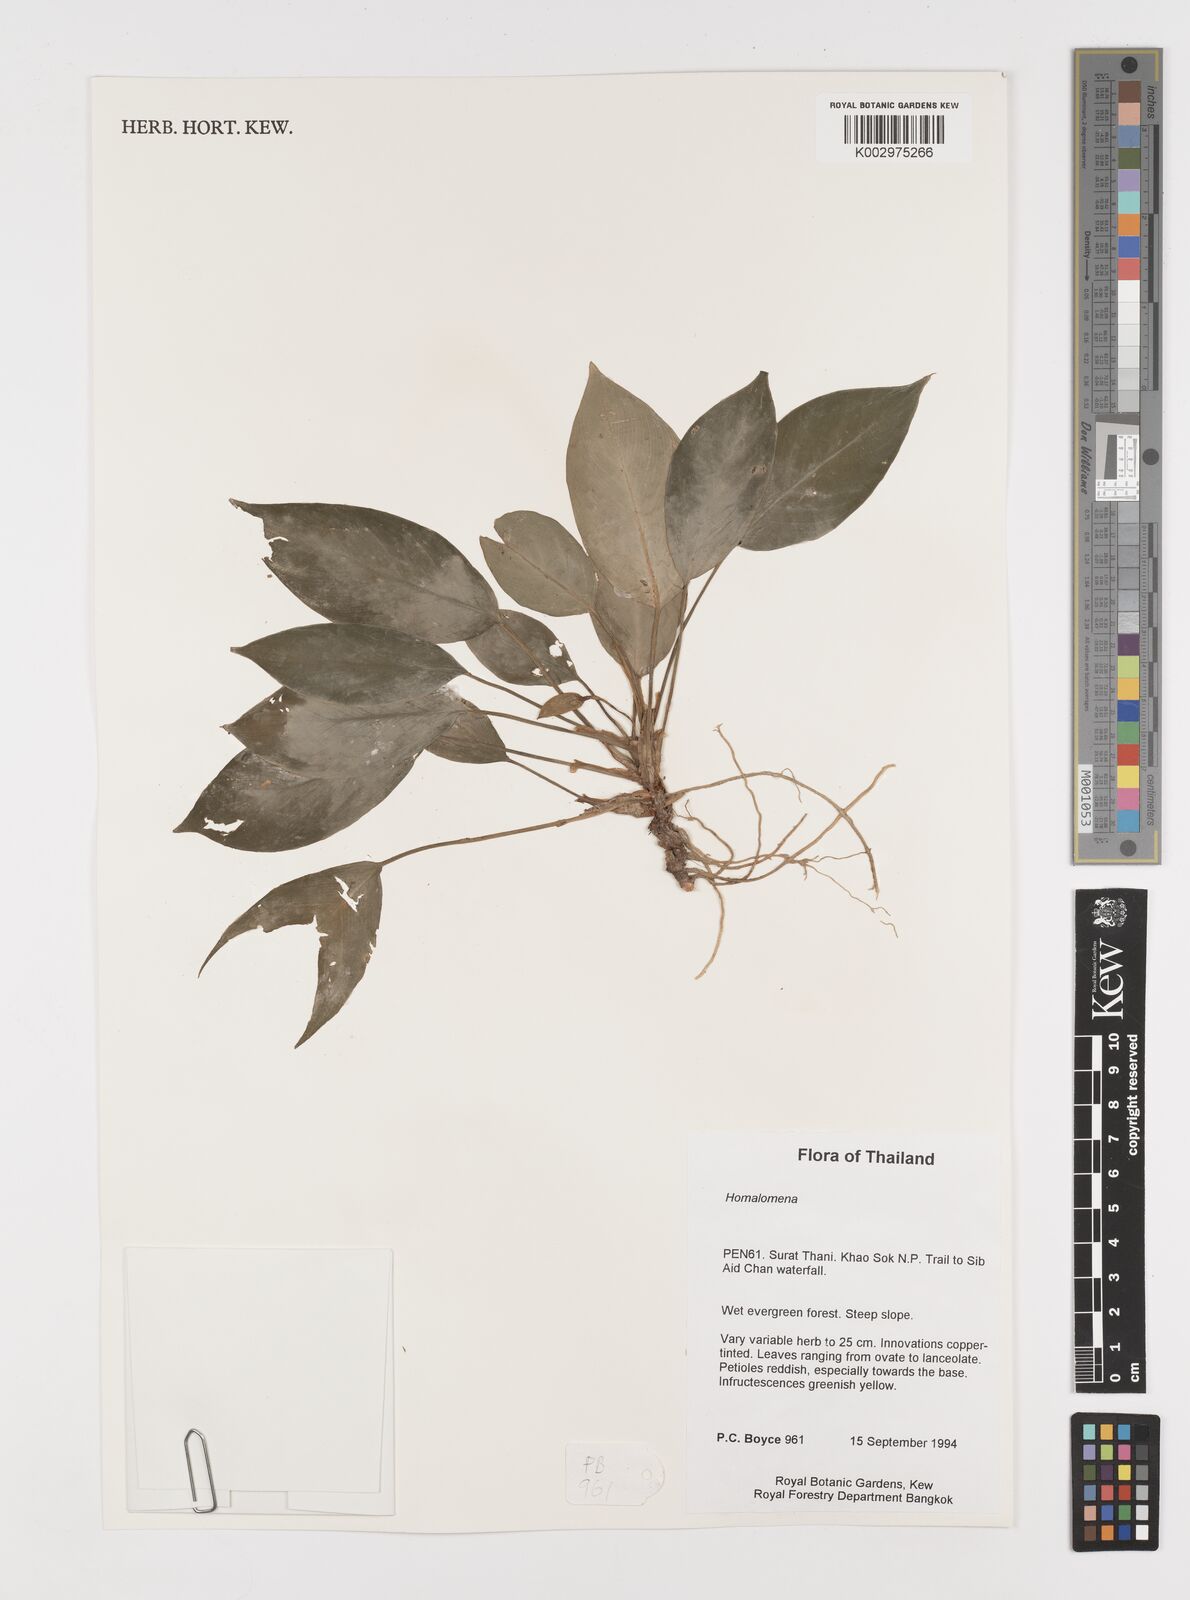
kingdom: Plantae
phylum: Tracheophyta
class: Liliopsida
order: Alismatales
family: Araceae
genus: Homalomena
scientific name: Homalomena
